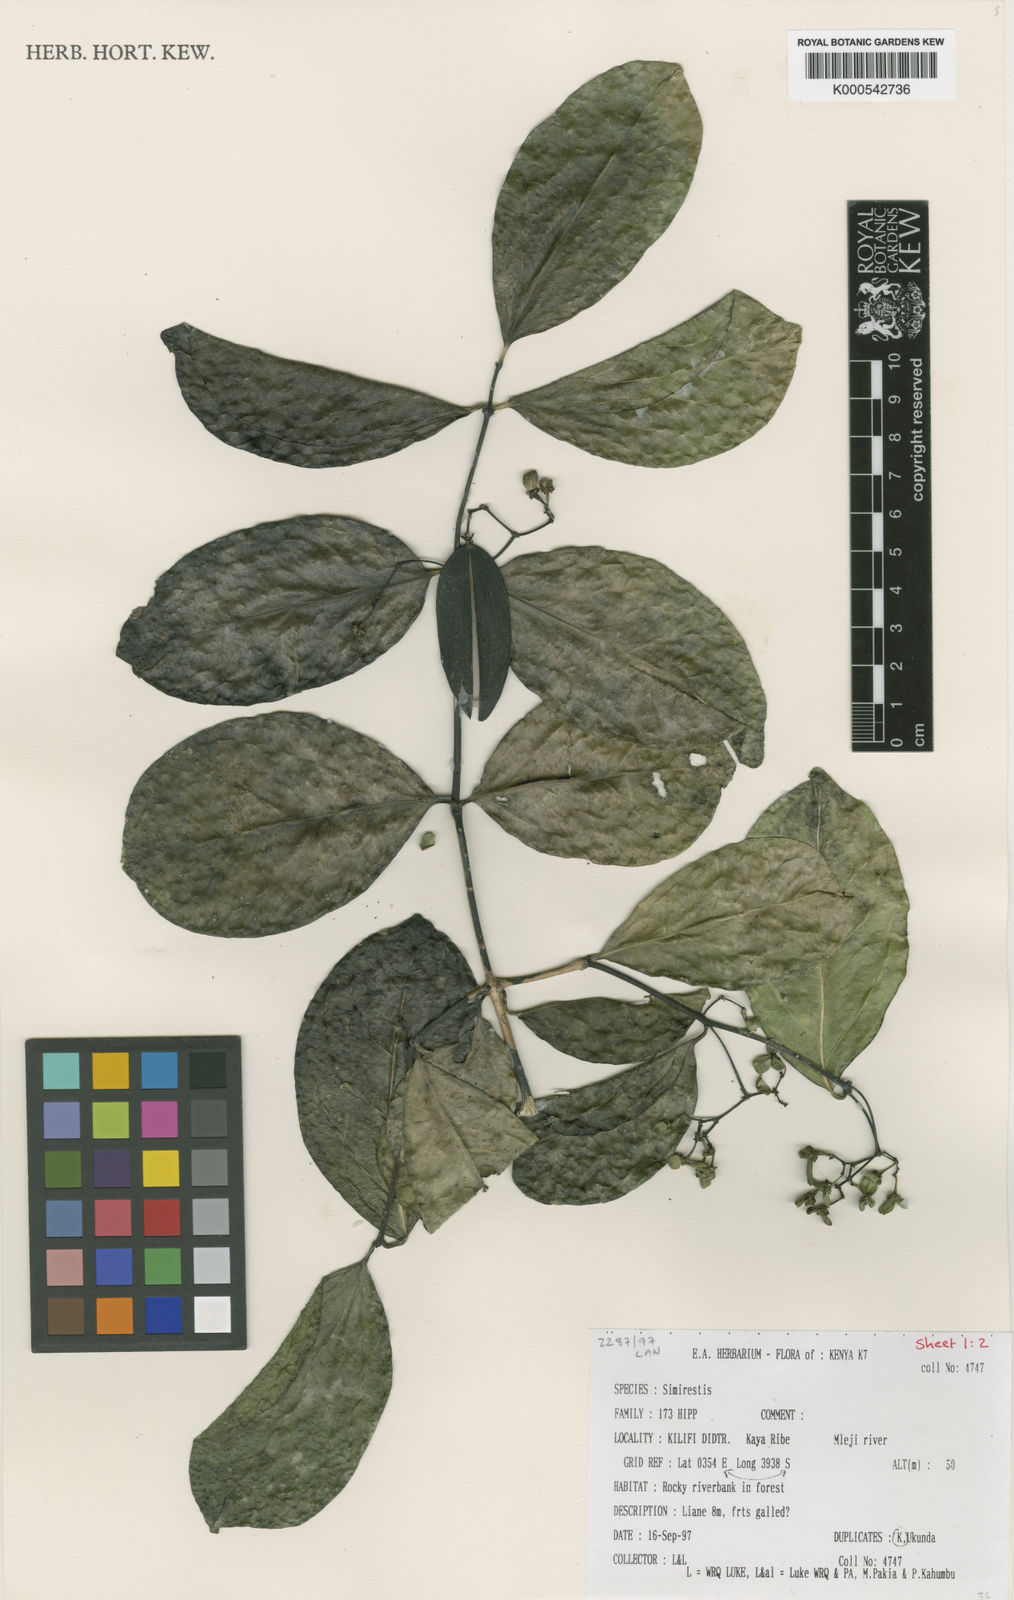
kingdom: Plantae
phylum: Tracheophyta
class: Magnoliopsida
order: Celastrales
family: Celastraceae
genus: Simicratea
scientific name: Simicratea
